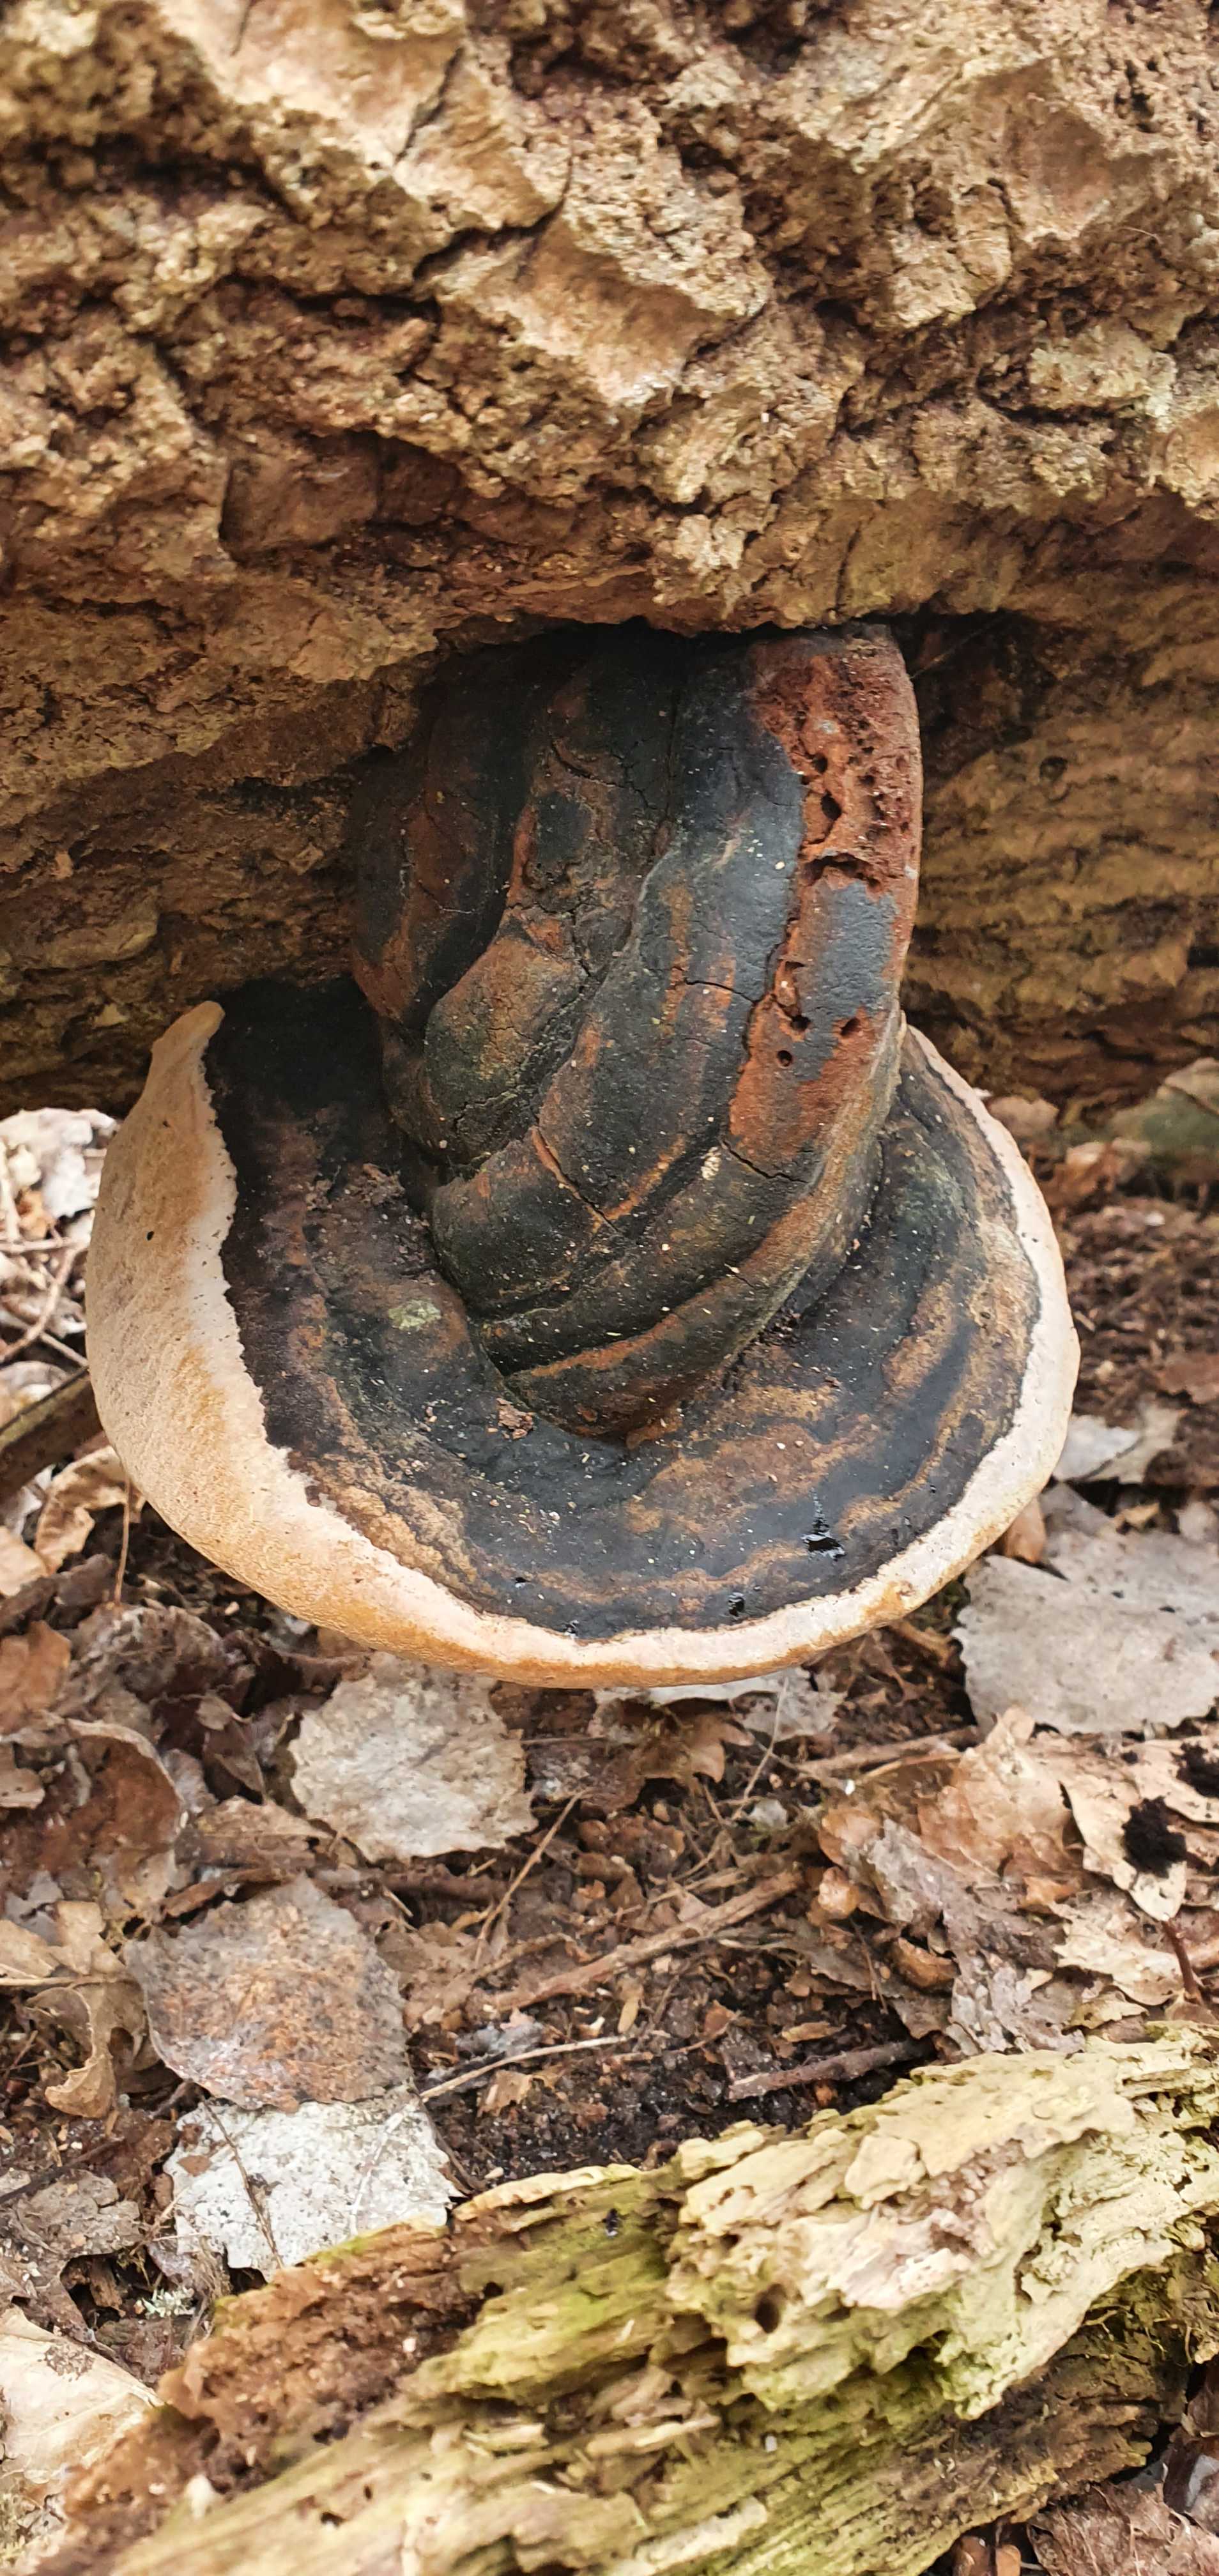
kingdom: Fungi
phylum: Basidiomycota
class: Agaricomycetes
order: Hymenochaetales
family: Hymenochaetaceae
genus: Phellinus
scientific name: Phellinus igniarius
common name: almindelig ildporesvamp
